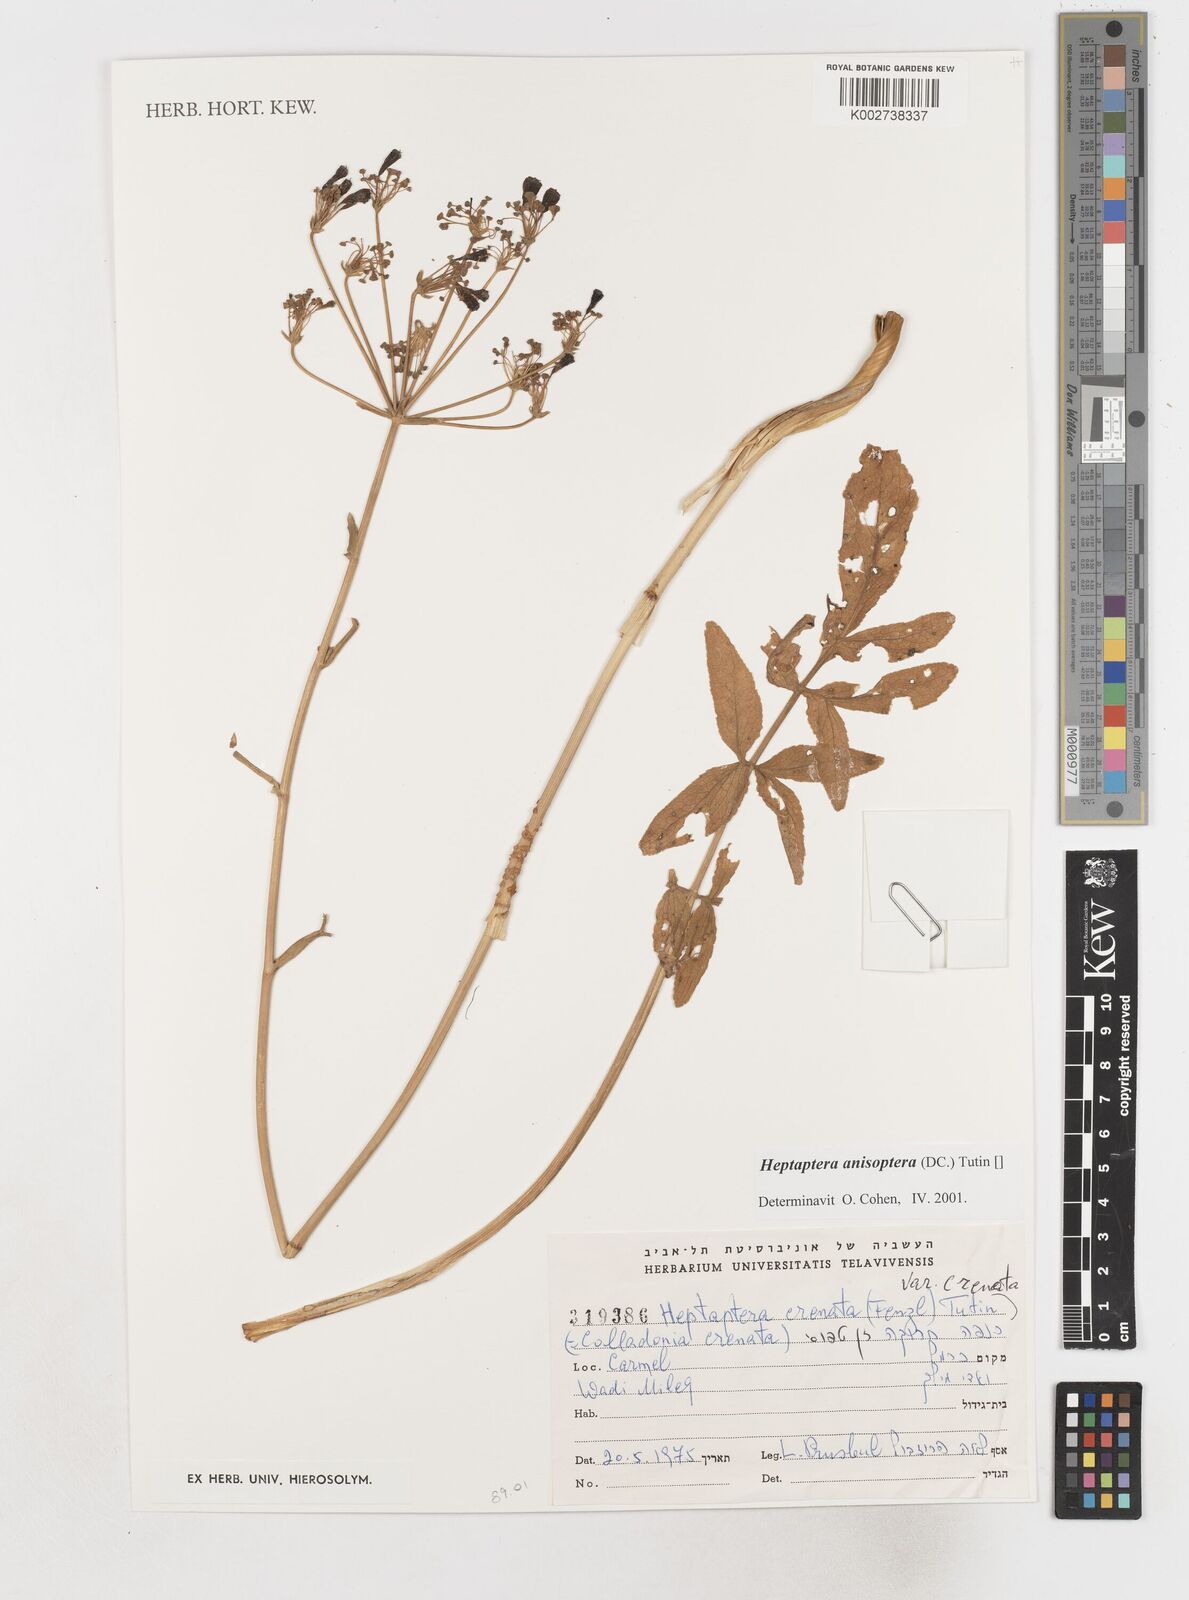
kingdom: Plantae
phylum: Tracheophyta
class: Magnoliopsida
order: Apiales
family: Apiaceae
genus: Heptaptera
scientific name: Heptaptera
